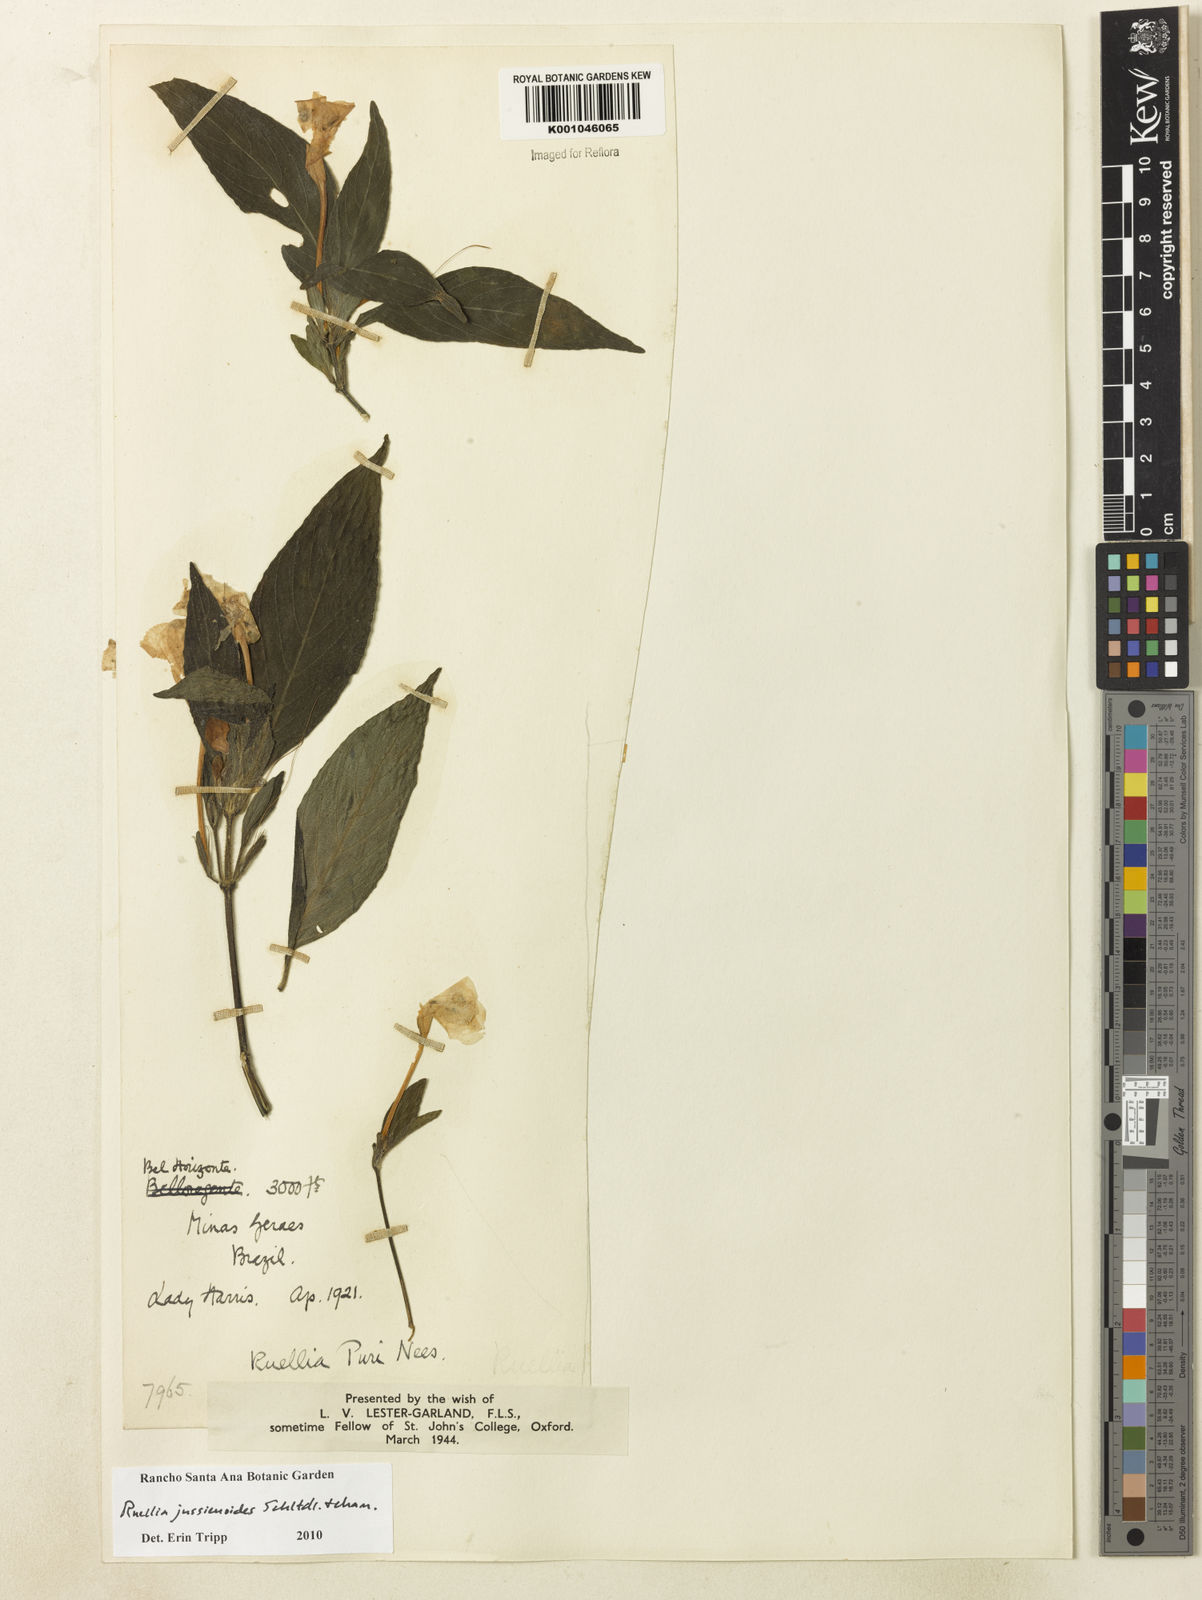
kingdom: Plantae
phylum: Tracheophyta
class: Magnoliopsida
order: Lamiales
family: Acanthaceae
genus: Ruellia
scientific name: Ruellia jussieuoides
